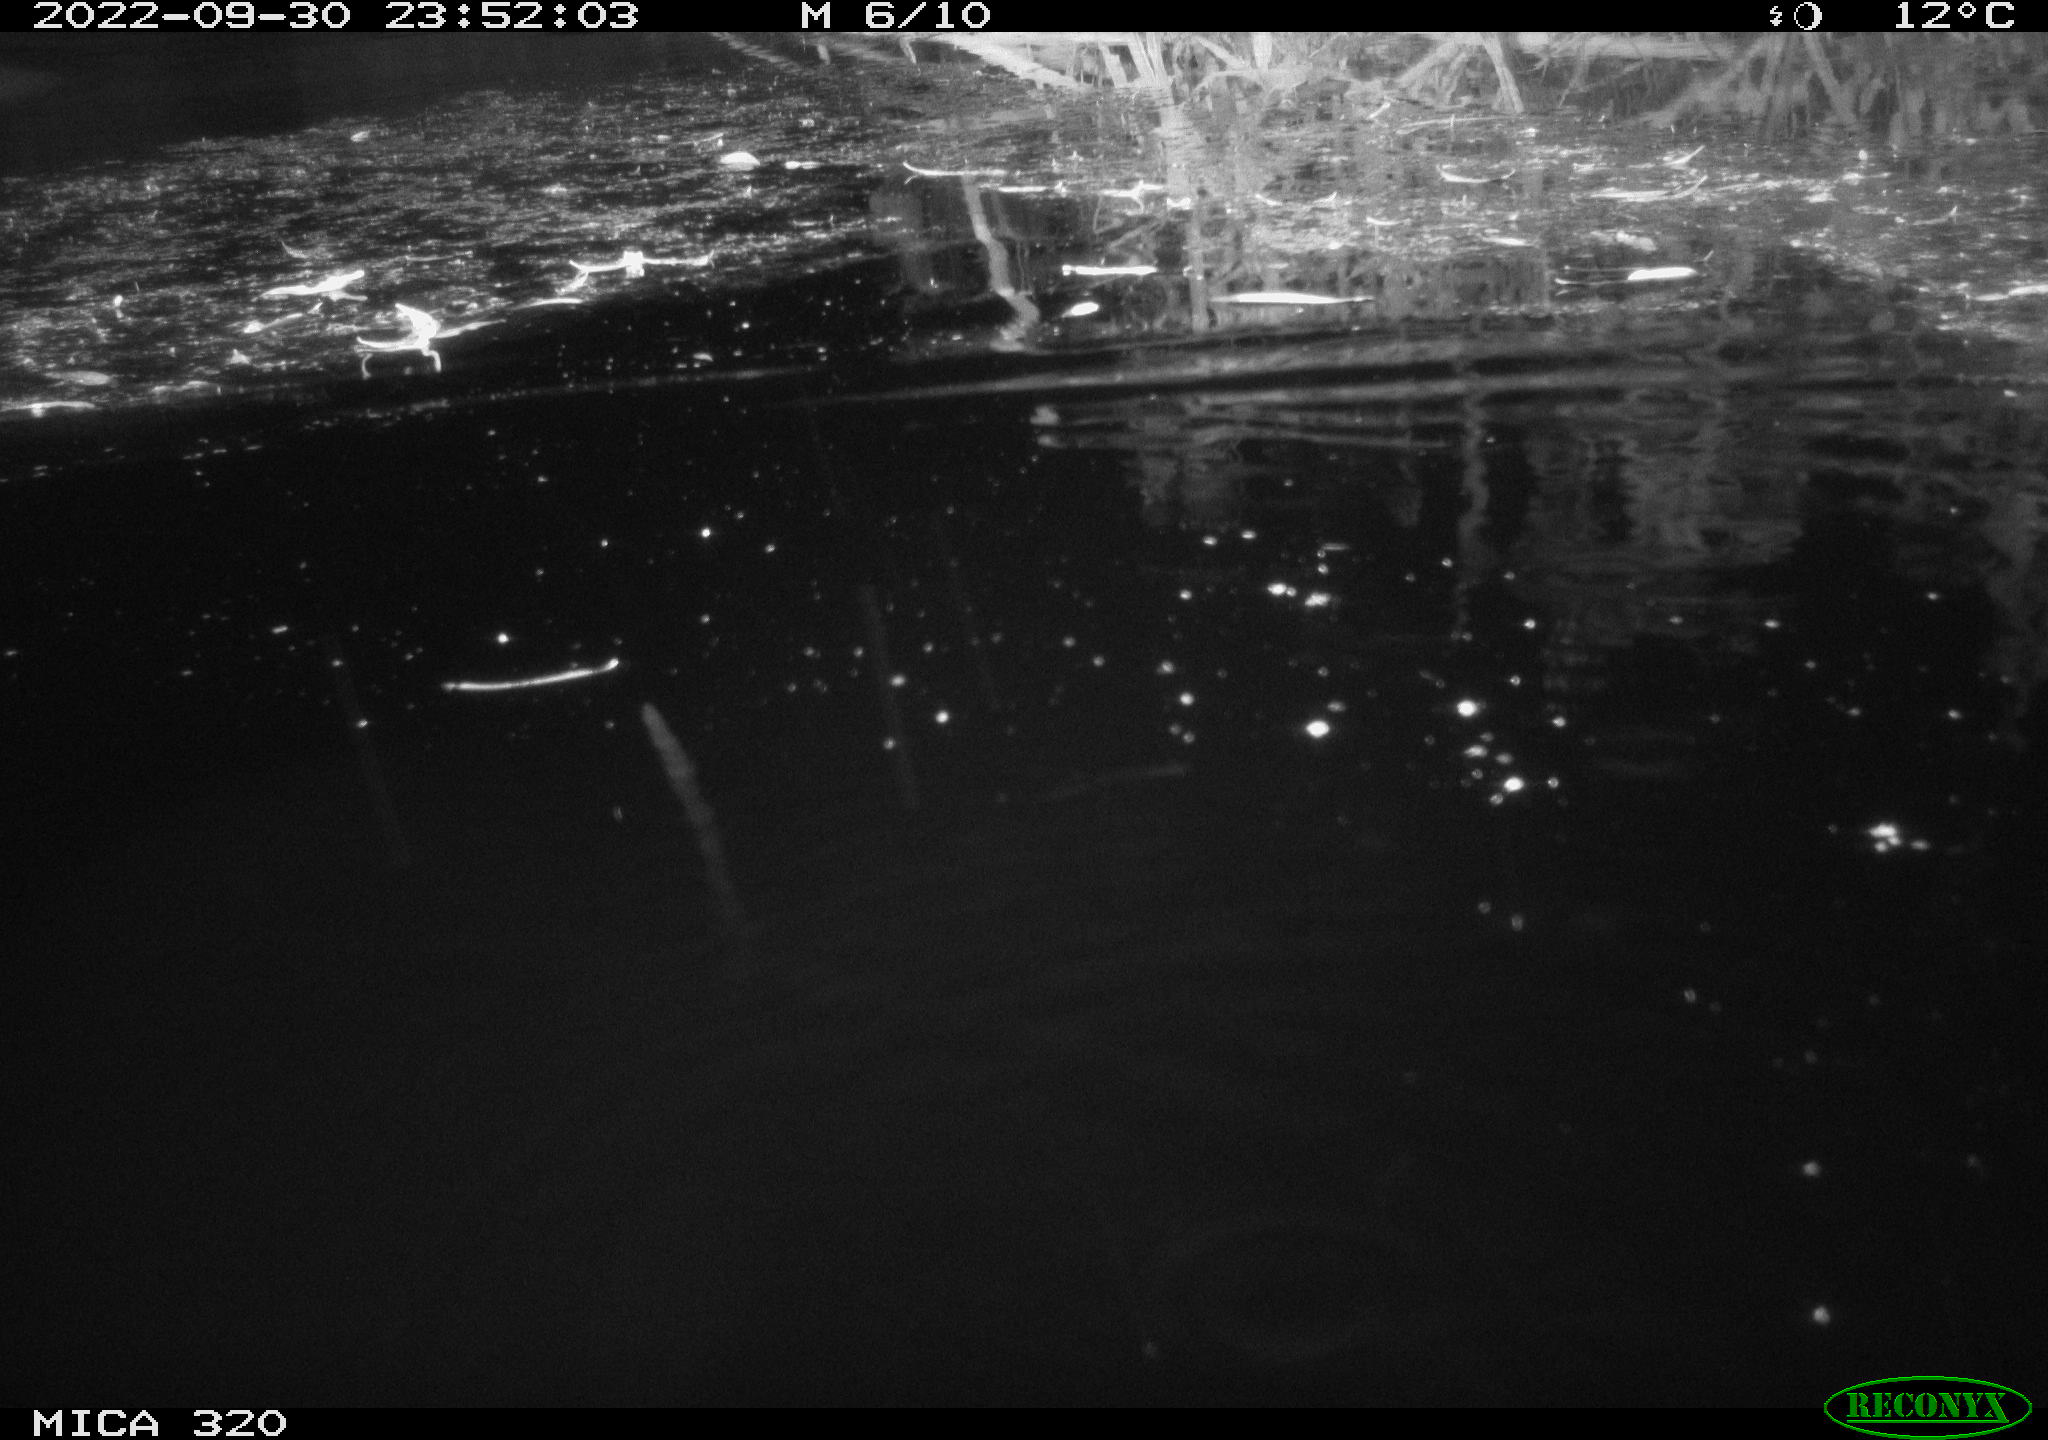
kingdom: Animalia
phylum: Chordata
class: Mammalia
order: Rodentia
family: Muridae
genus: Rattus
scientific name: Rattus norvegicus
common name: Brown rat
